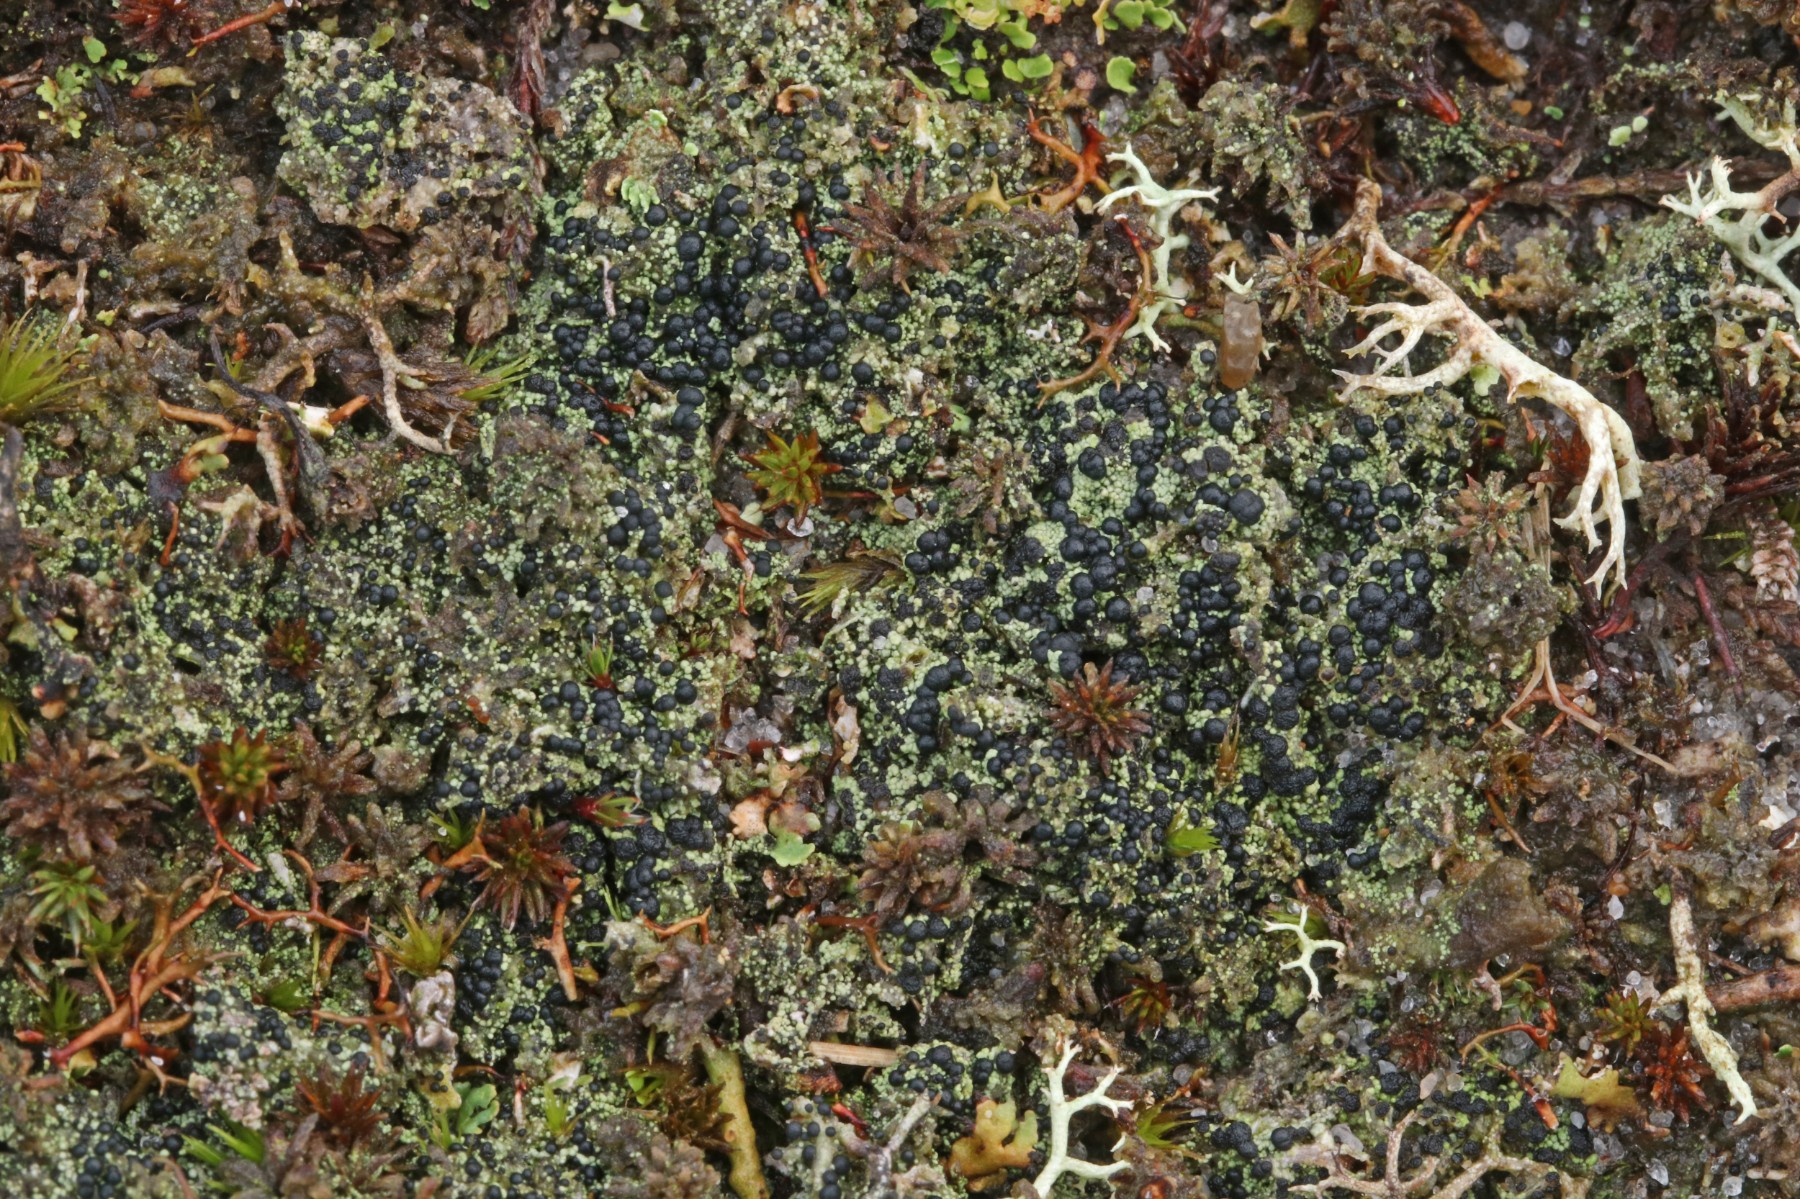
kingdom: Fungi
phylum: Ascomycota
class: Lecanoromycetes
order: Lecanorales
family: Byssolomataceae
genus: Micarea
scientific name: Micarea lignaria
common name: tørve-knaplav
